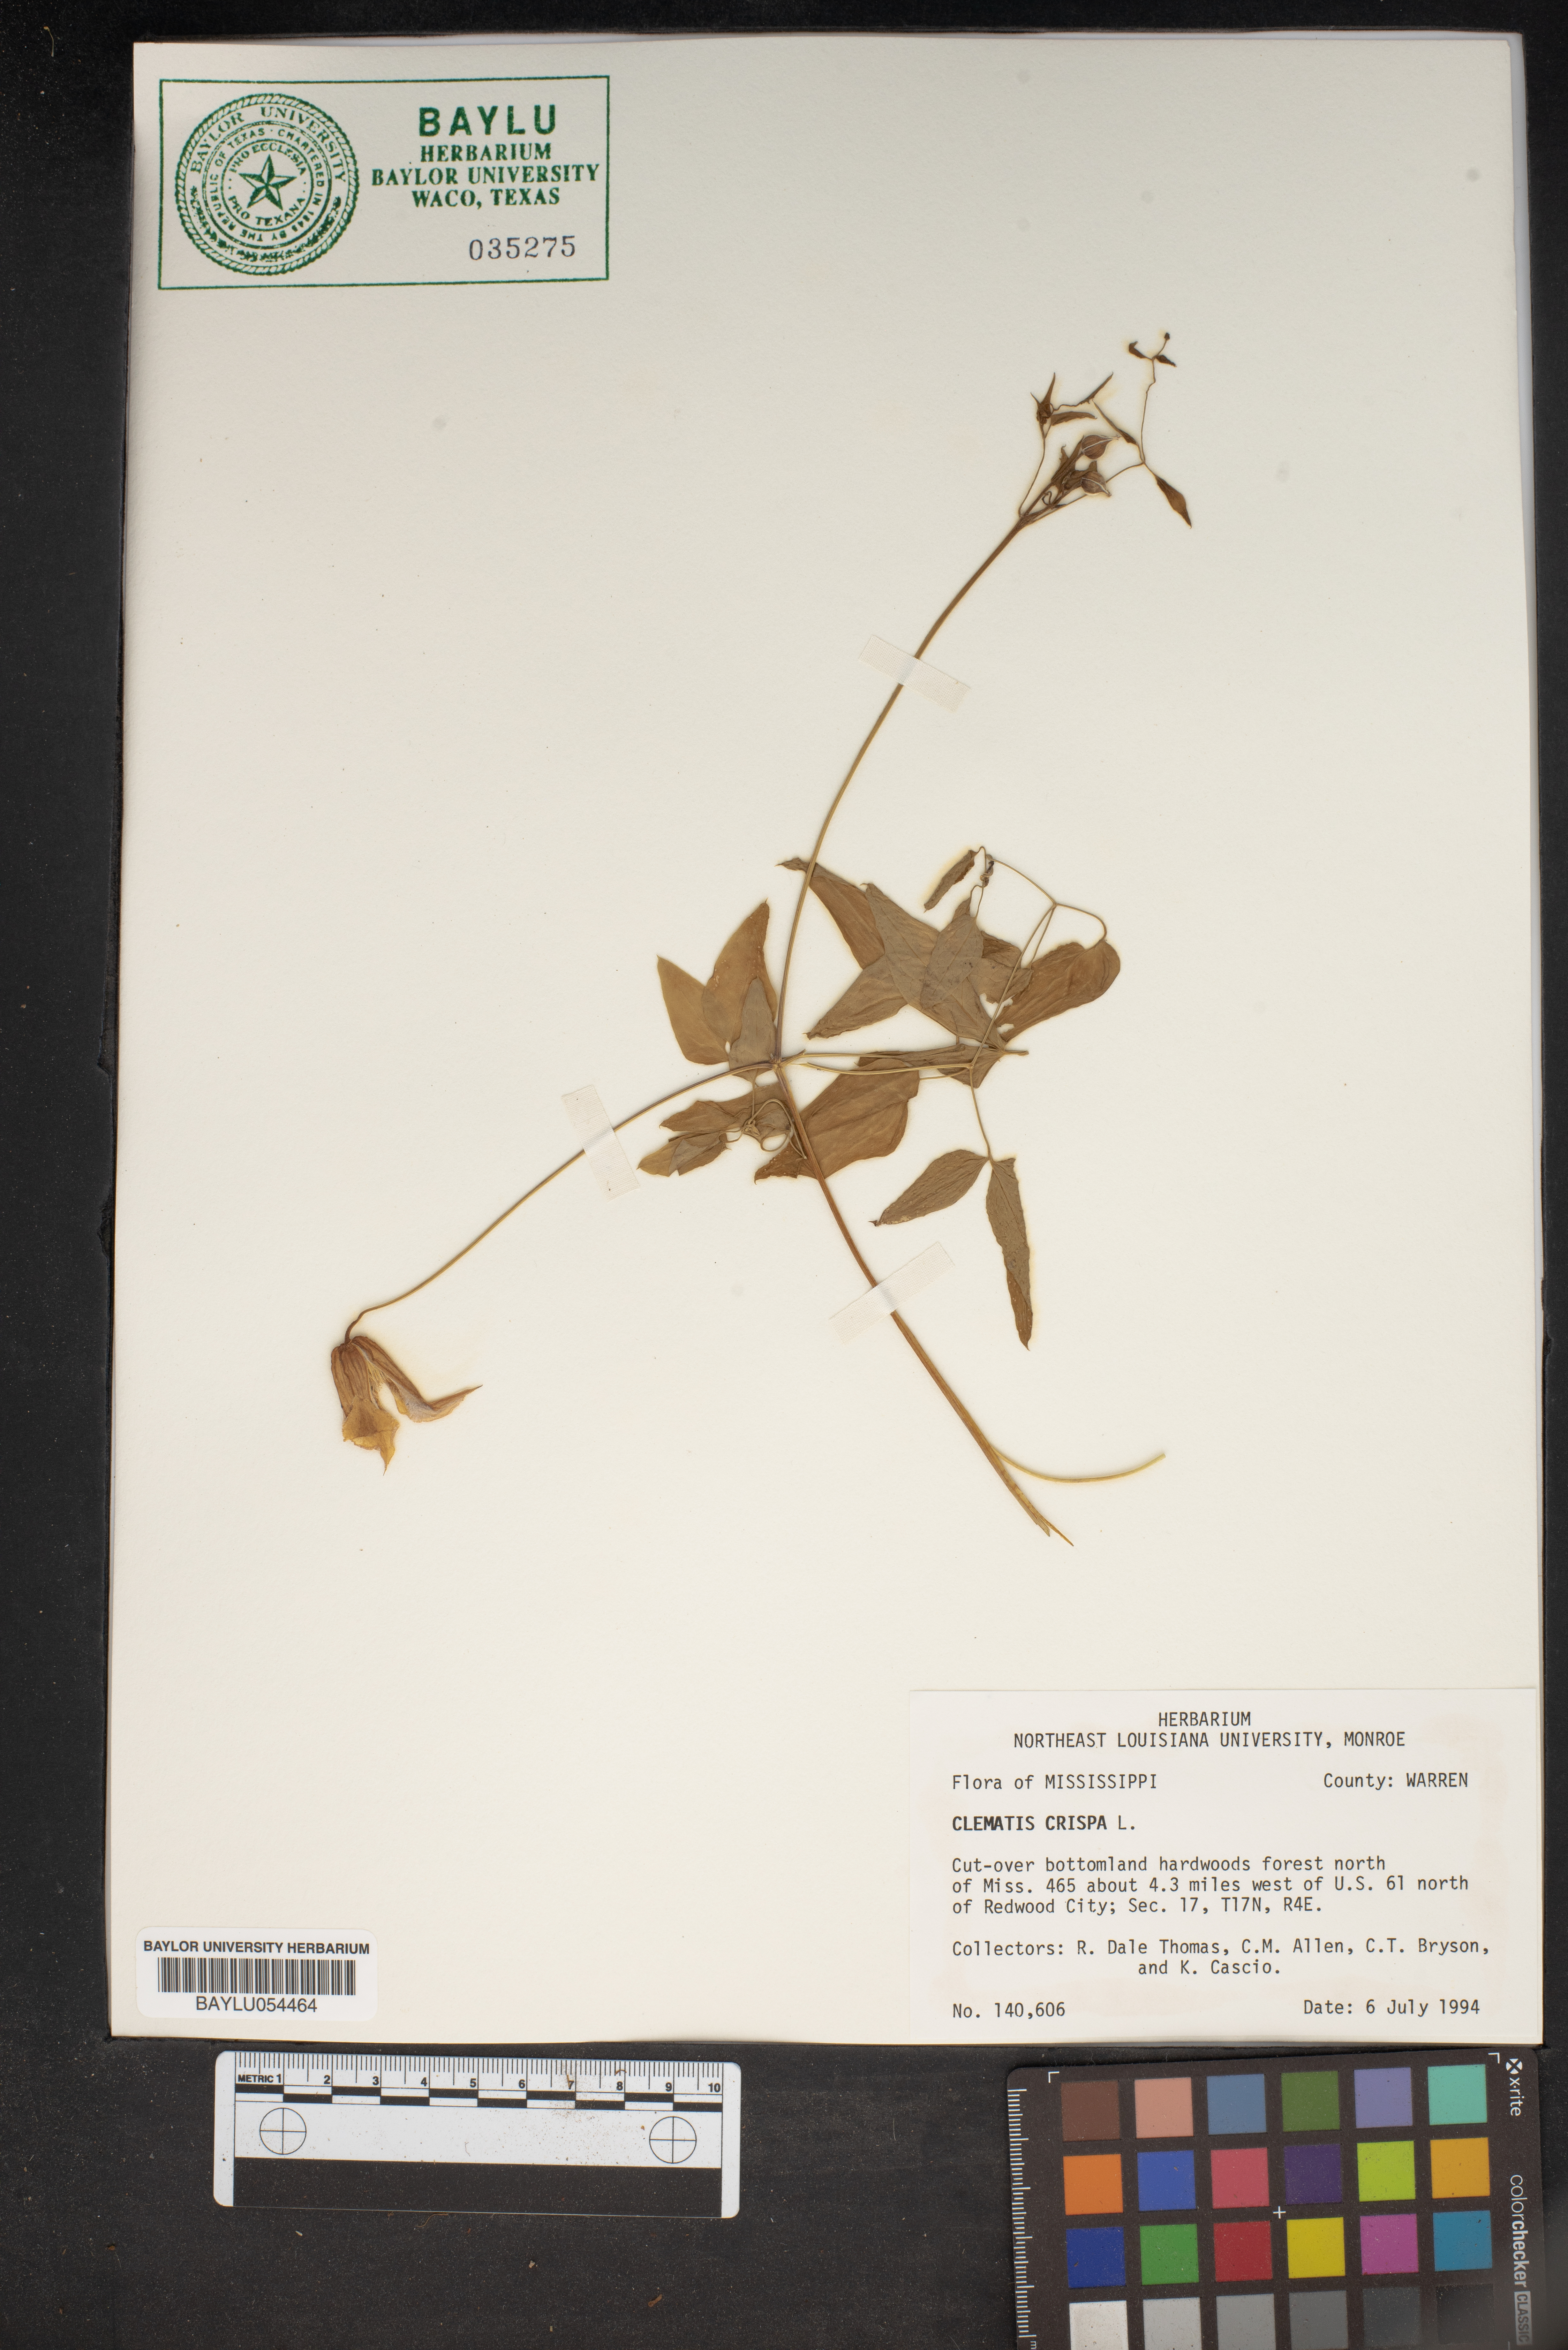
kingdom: Plantae
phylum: Tracheophyta
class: Magnoliopsida
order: Ranunculales
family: Ranunculaceae
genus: Clematis
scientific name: Clematis crispa
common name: Curly clematis
